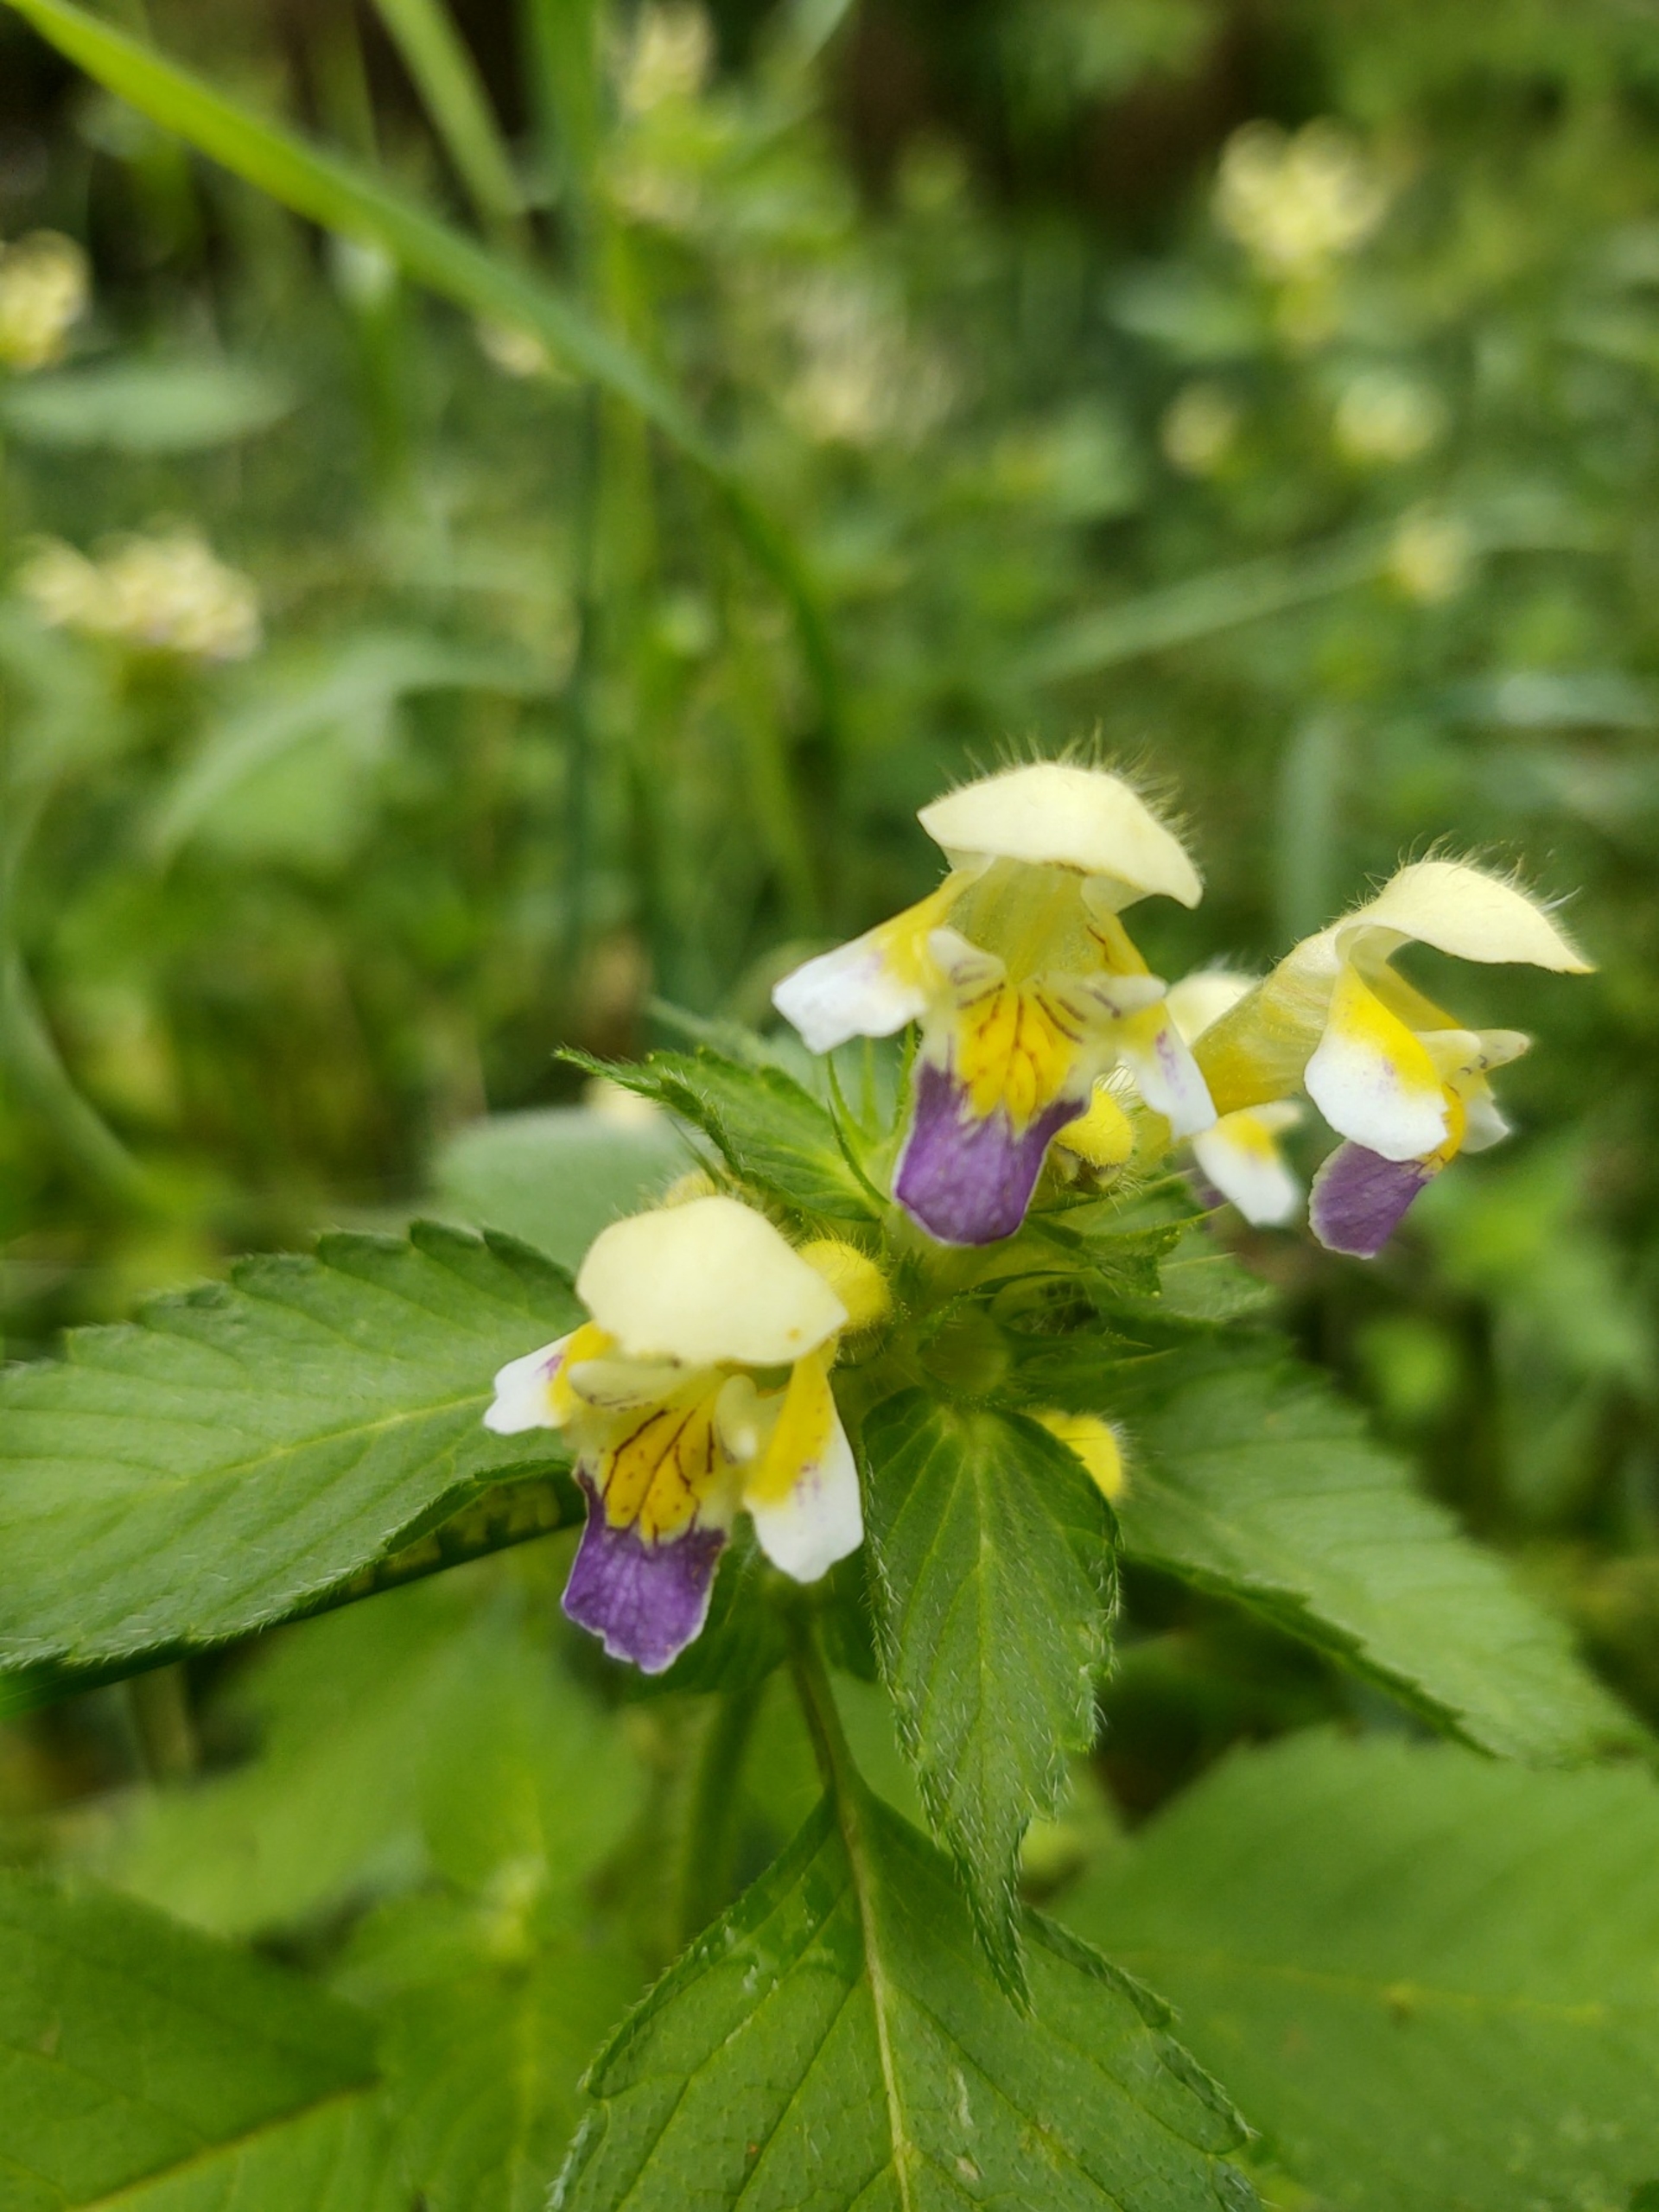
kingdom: Plantae
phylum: Tracheophyta
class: Magnoliopsida
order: Lamiales
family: Lamiaceae
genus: Galeopsis
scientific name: Galeopsis speciosa
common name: Hamp-hanekro
